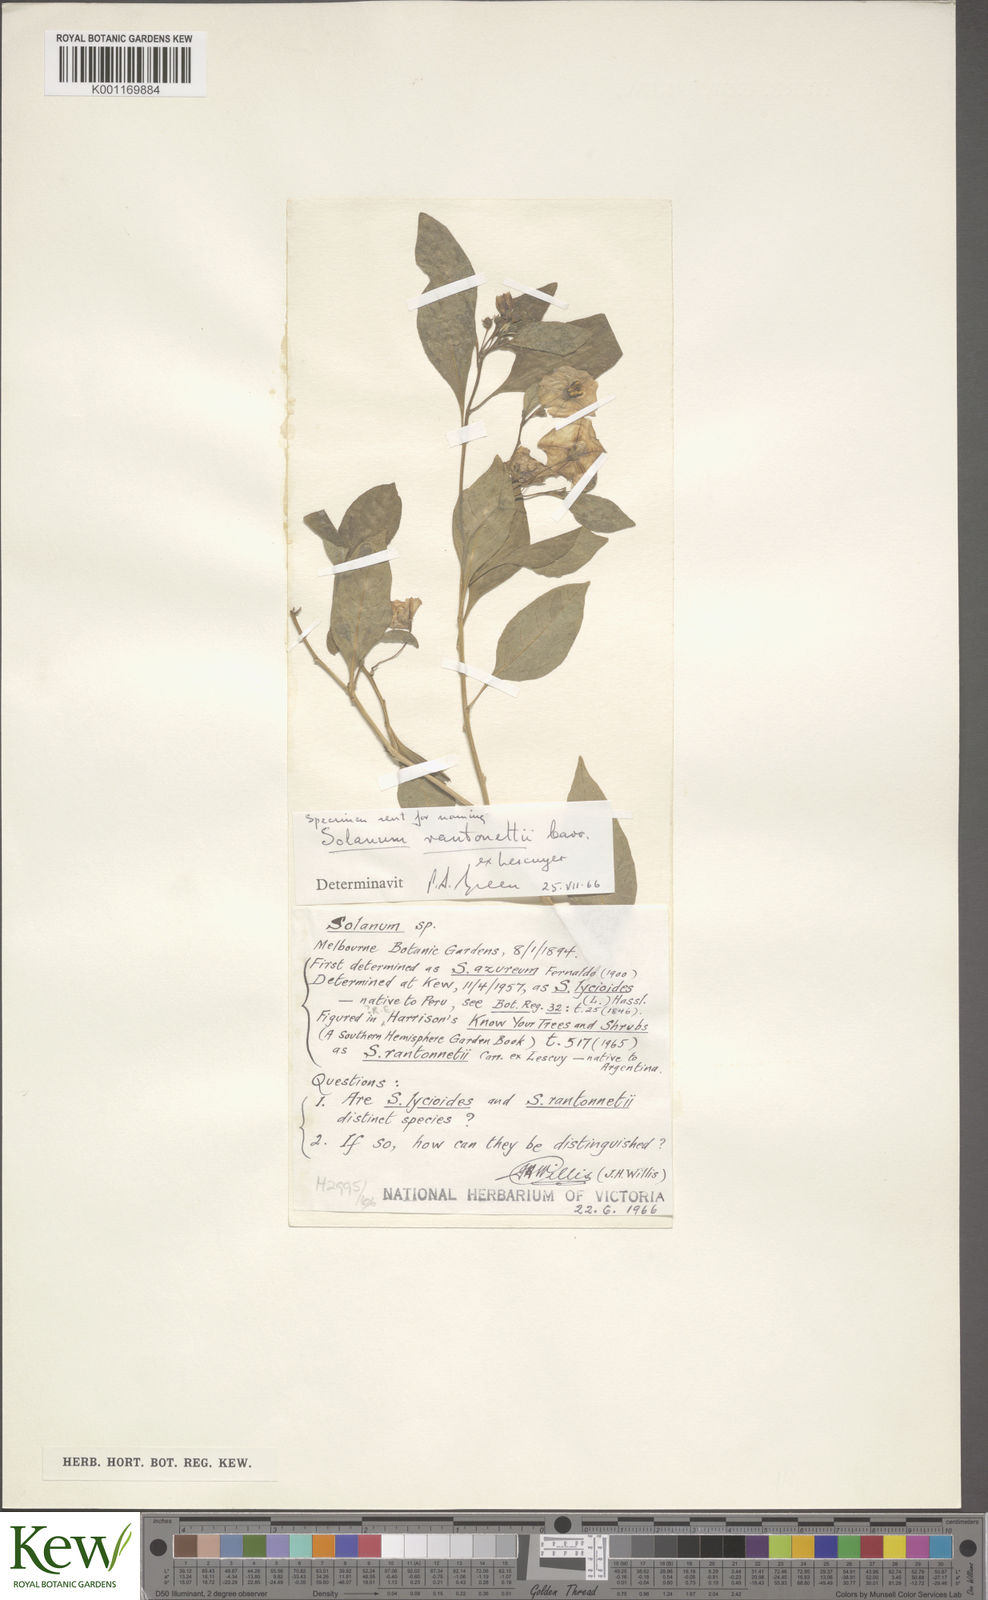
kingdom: Plantae
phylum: Tracheophyta
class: Magnoliopsida
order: Solanales
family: Solanaceae
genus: Solanum
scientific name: Solanum
